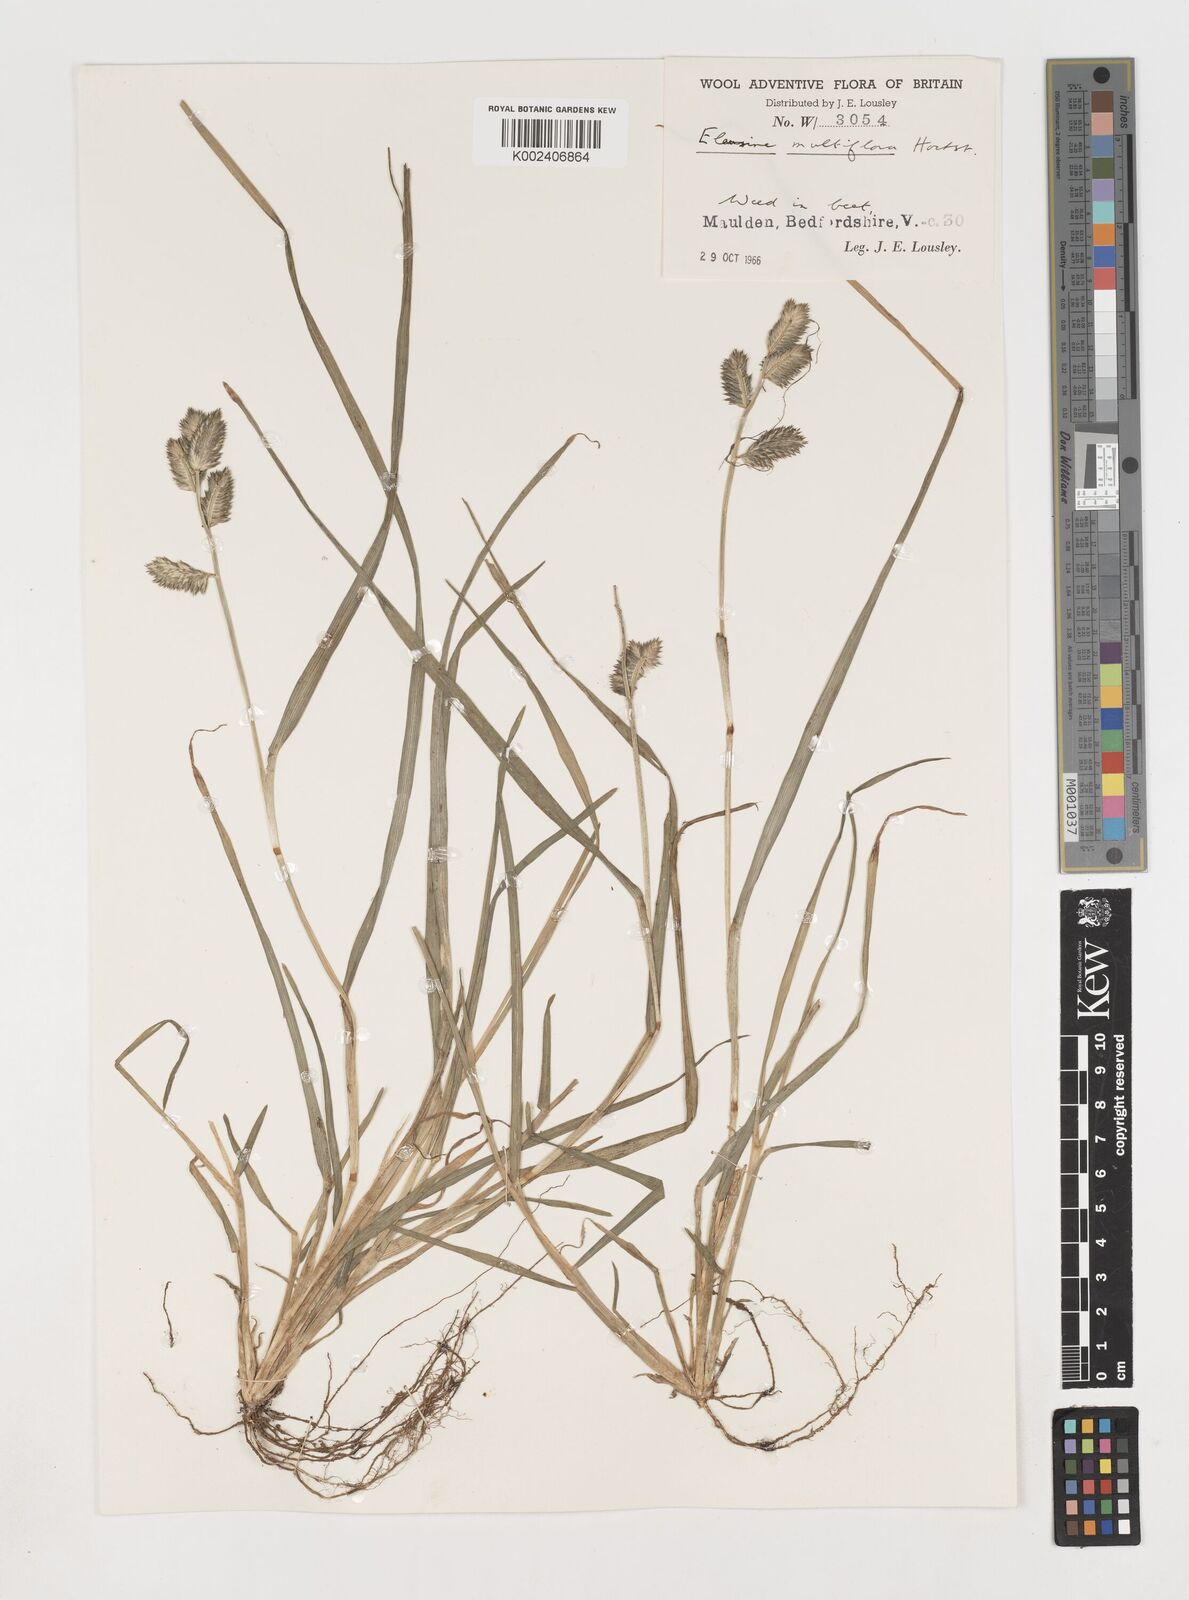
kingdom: Plantae
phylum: Tracheophyta
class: Liliopsida
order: Poales
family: Poaceae
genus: Eleusine
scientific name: Eleusine multiflora
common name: Fat-spiked yard-grass
